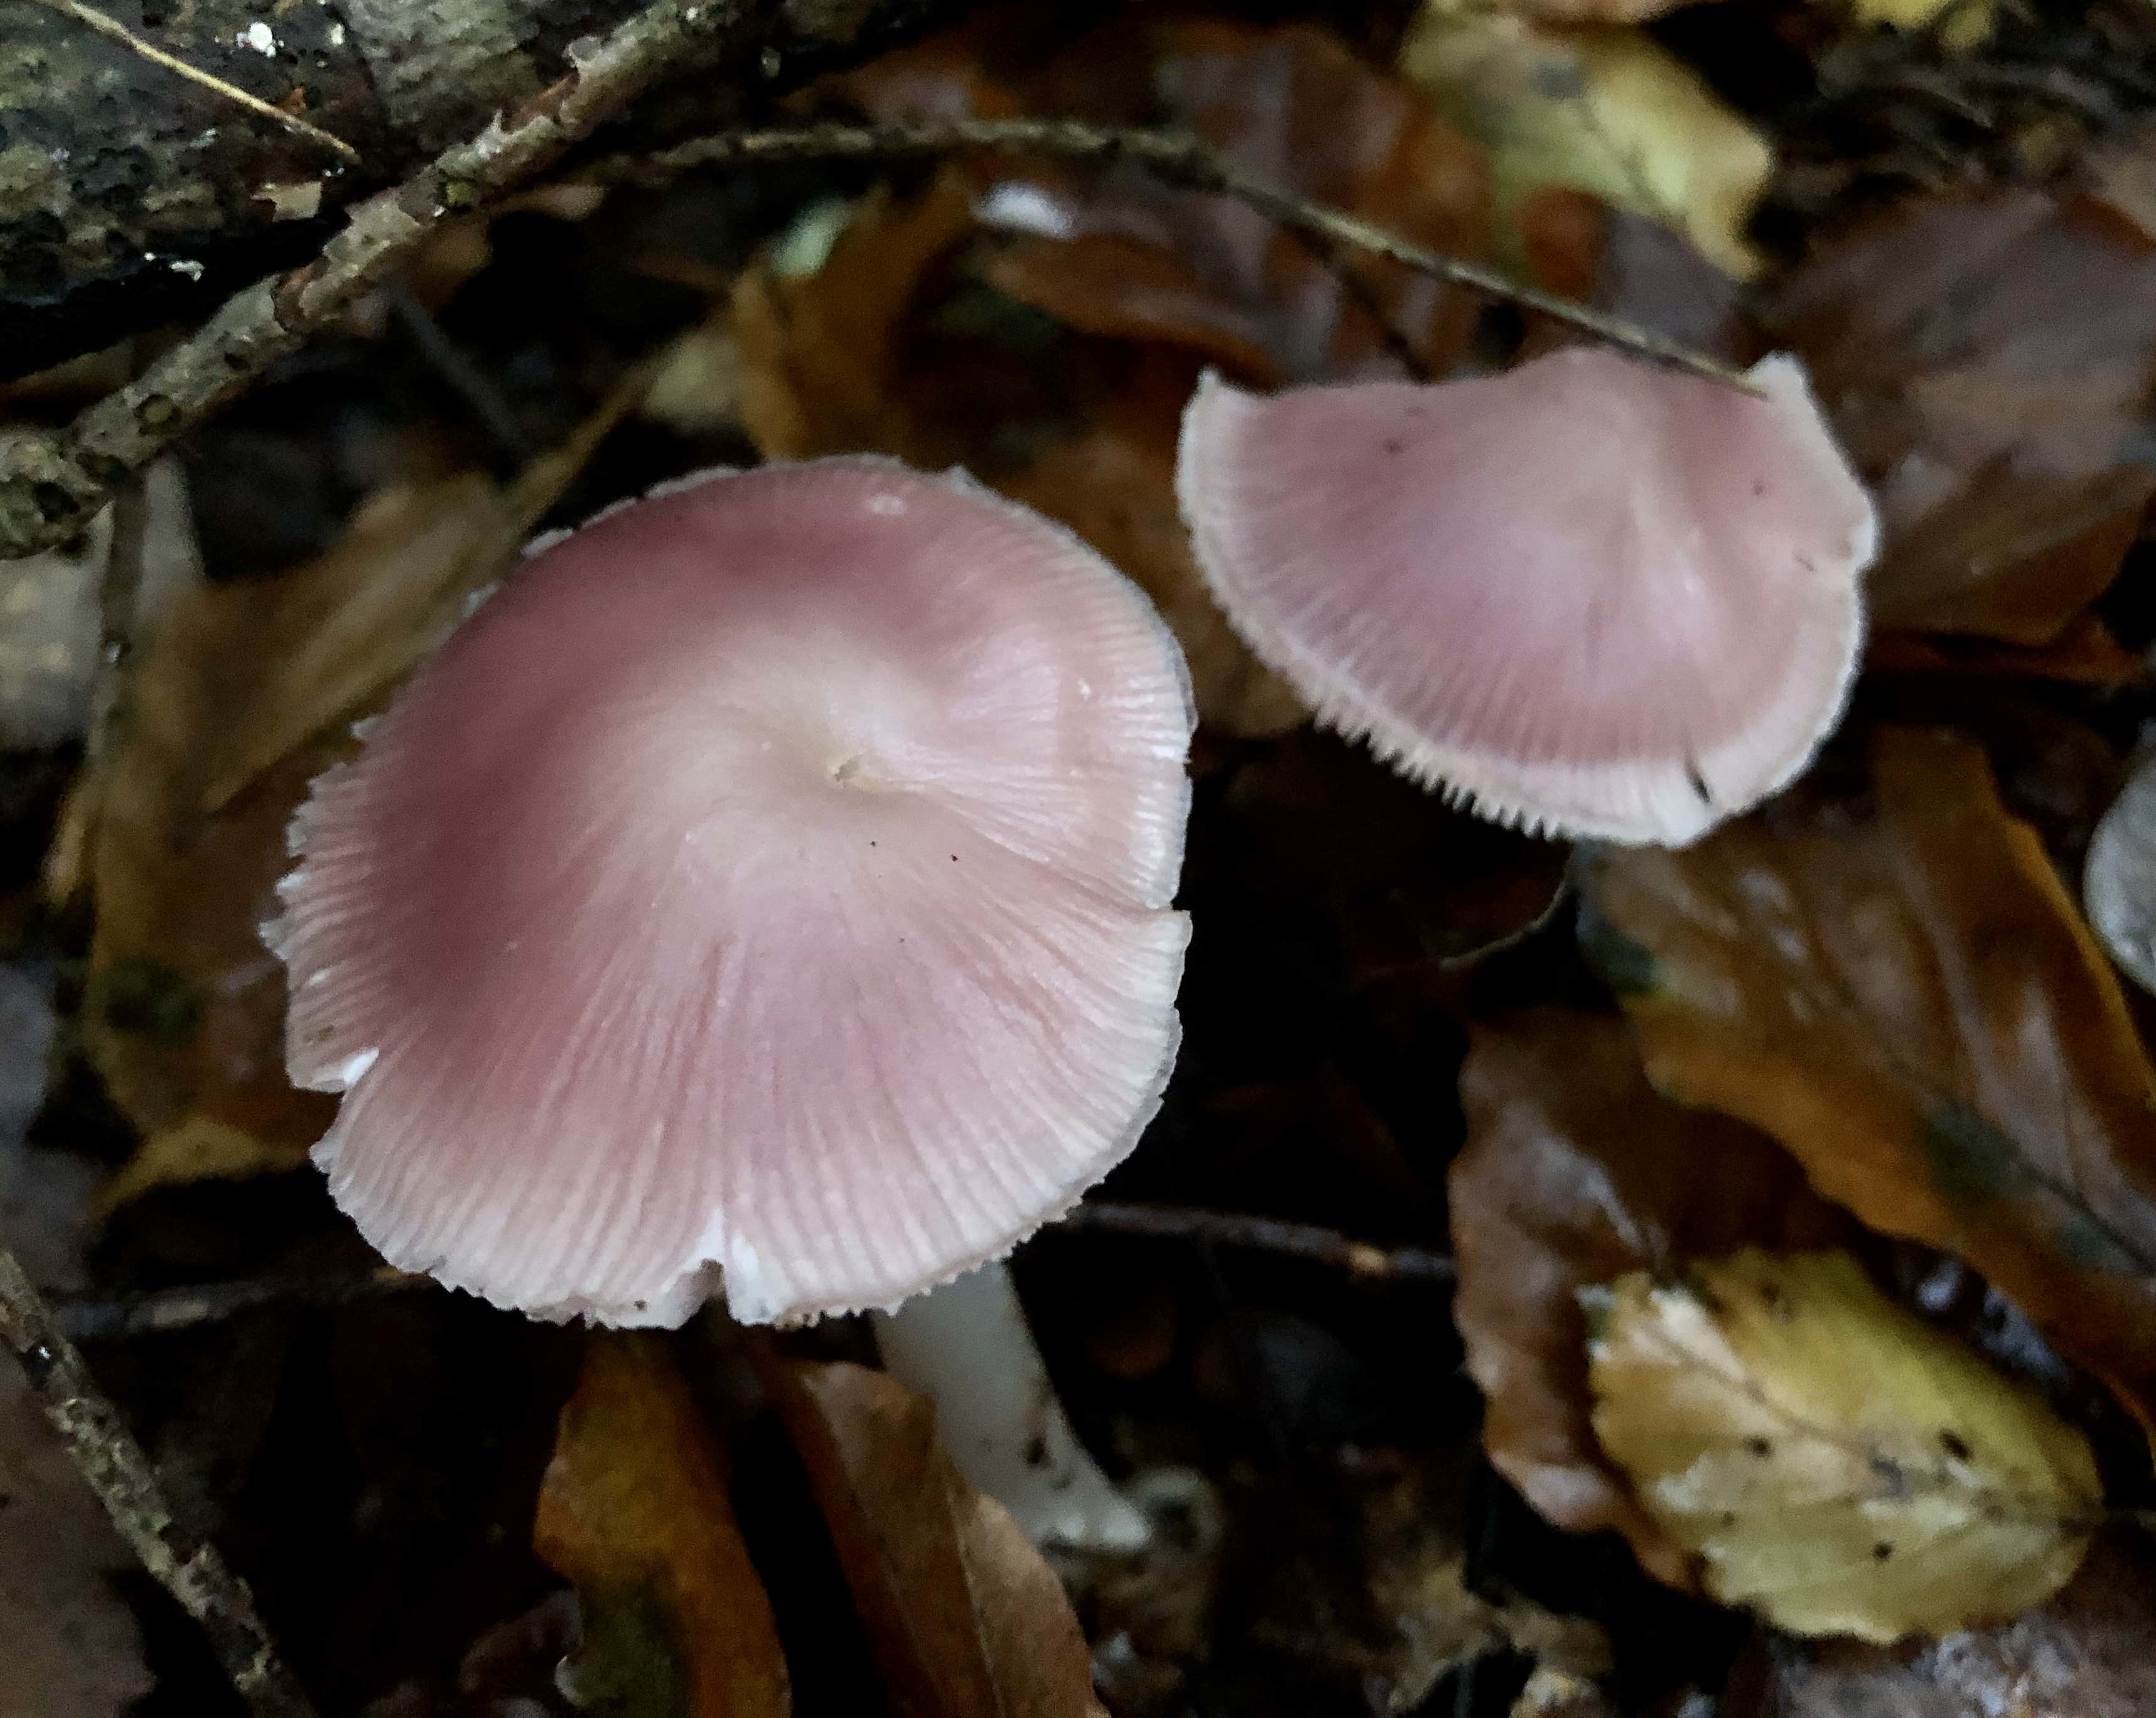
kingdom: Fungi
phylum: Basidiomycota
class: Agaricomycetes
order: Agaricales
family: Mycenaceae
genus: Mycena
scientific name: Mycena rosea
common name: rosa huesvamp
